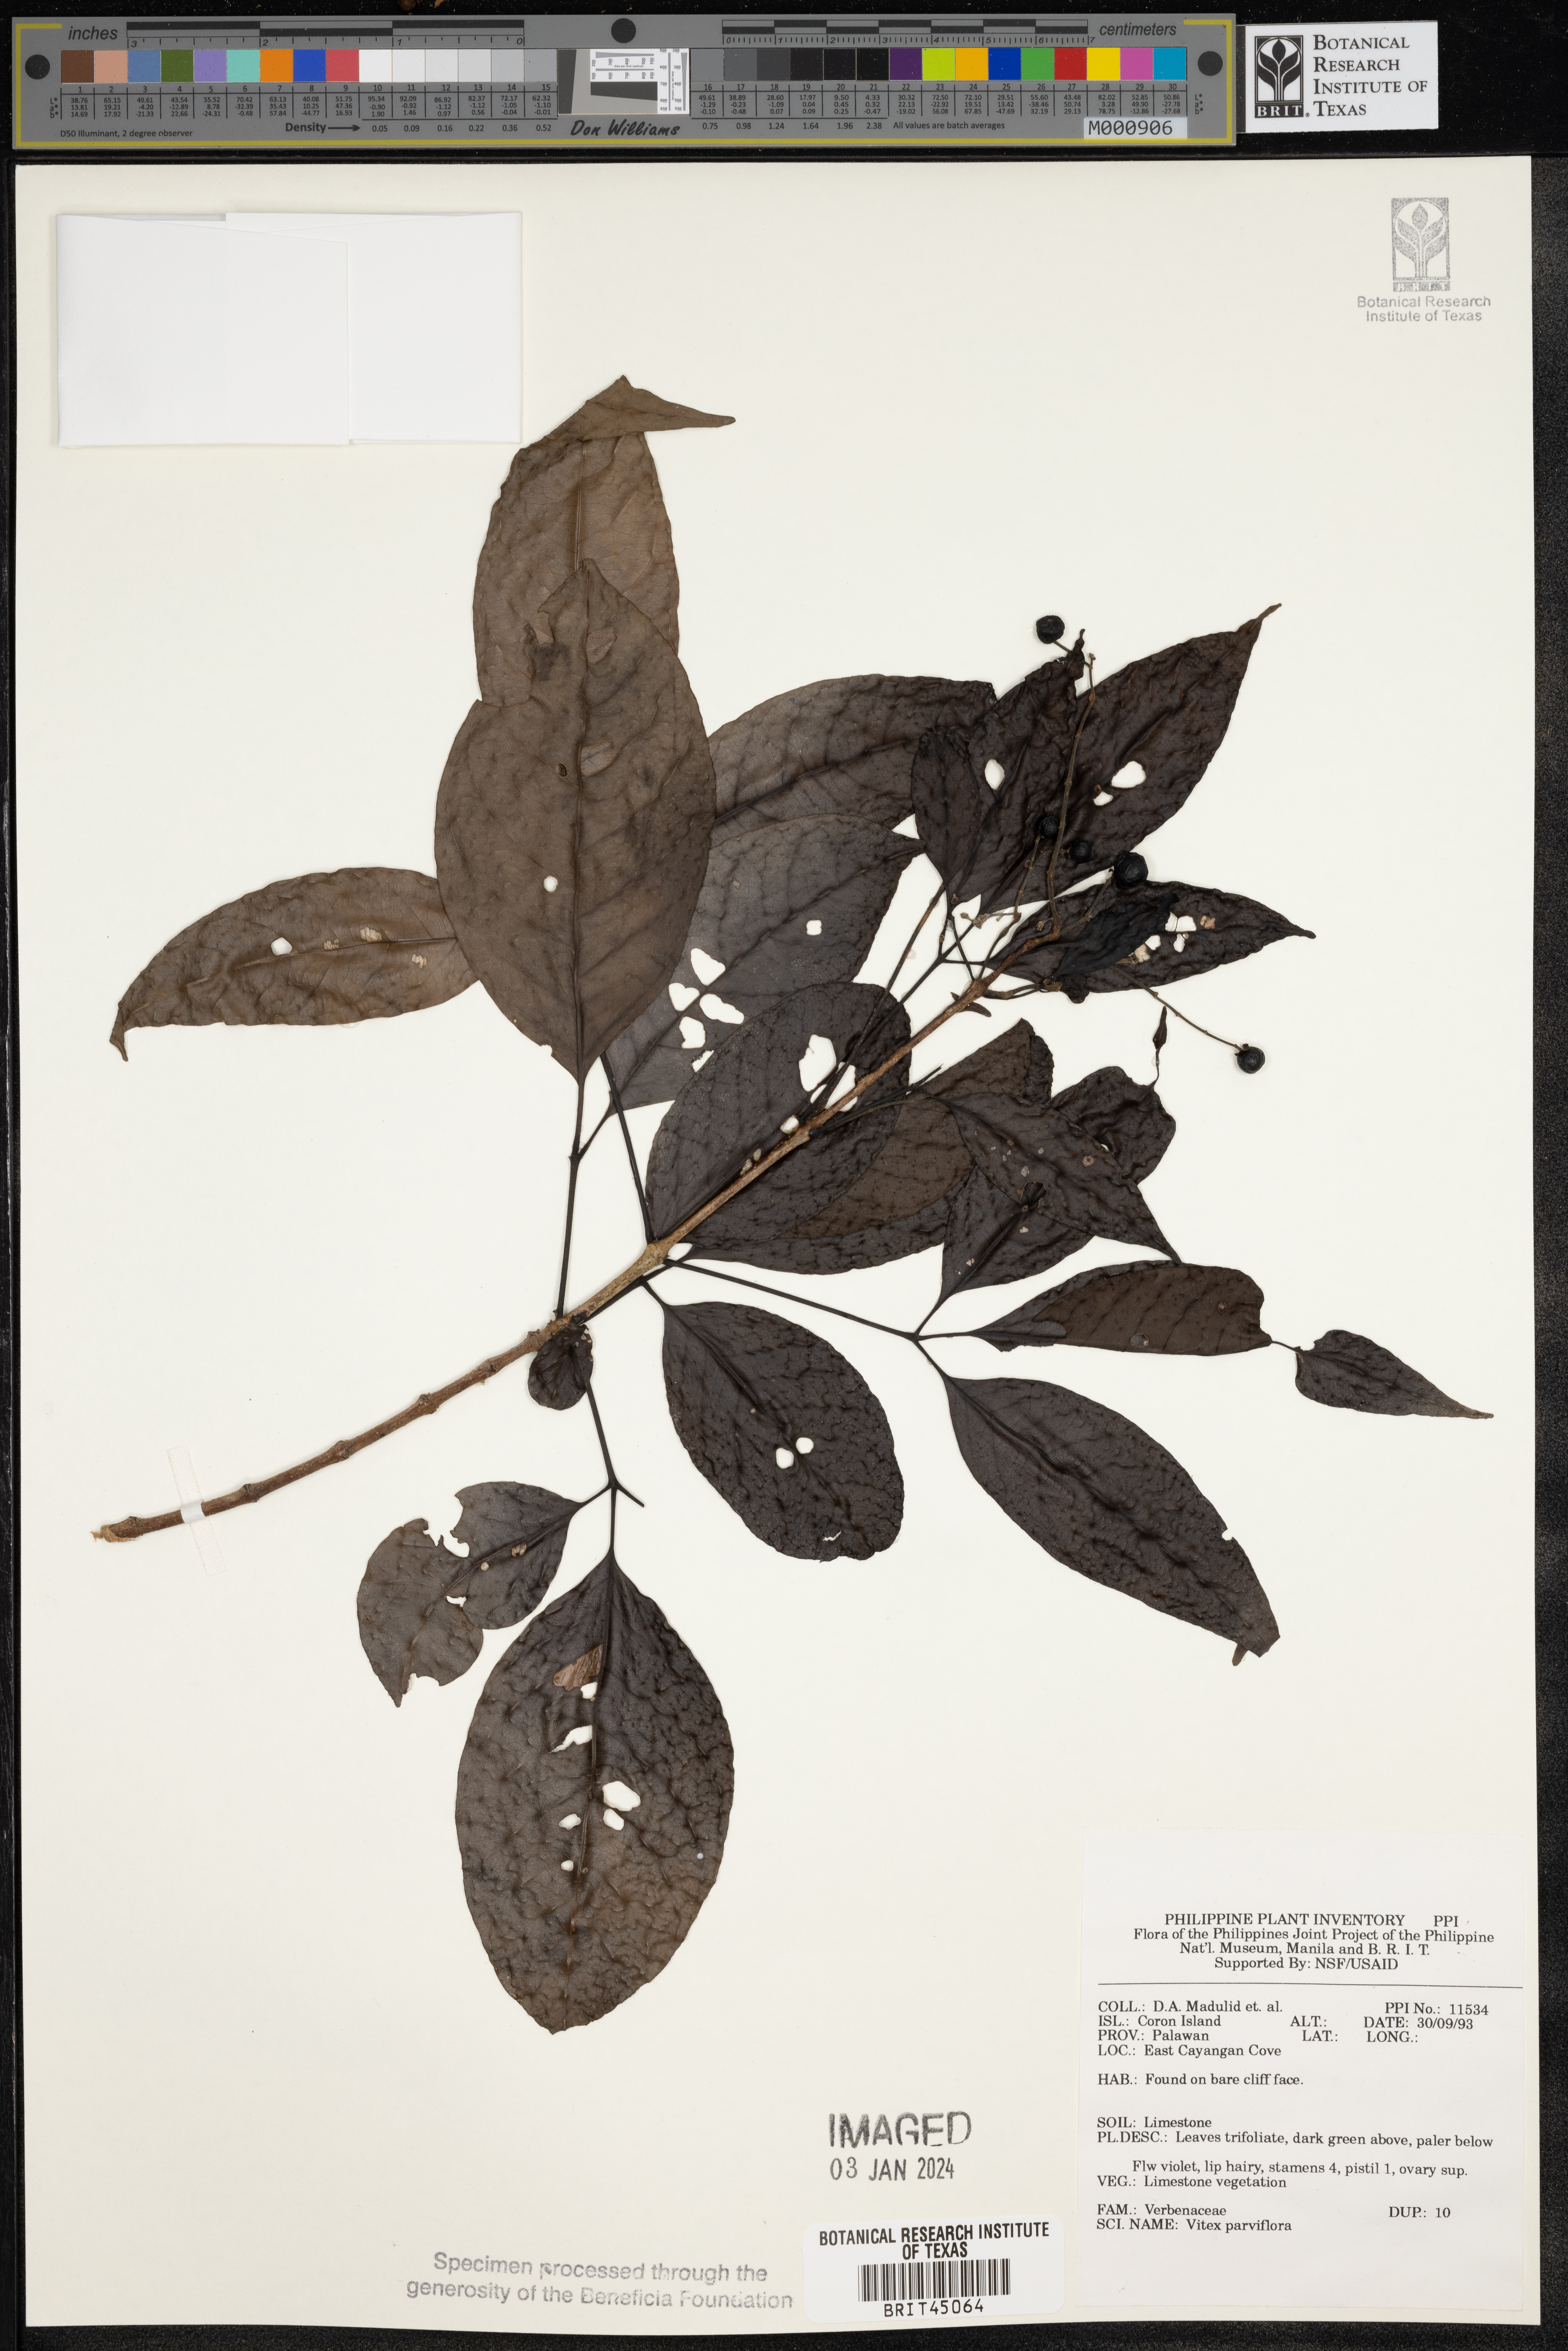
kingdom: Plantae
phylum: Tracheophyta
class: Magnoliopsida
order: Lamiales
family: Lamiaceae
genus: Vitex
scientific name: Vitex parviflora
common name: Smallflower chastetree
